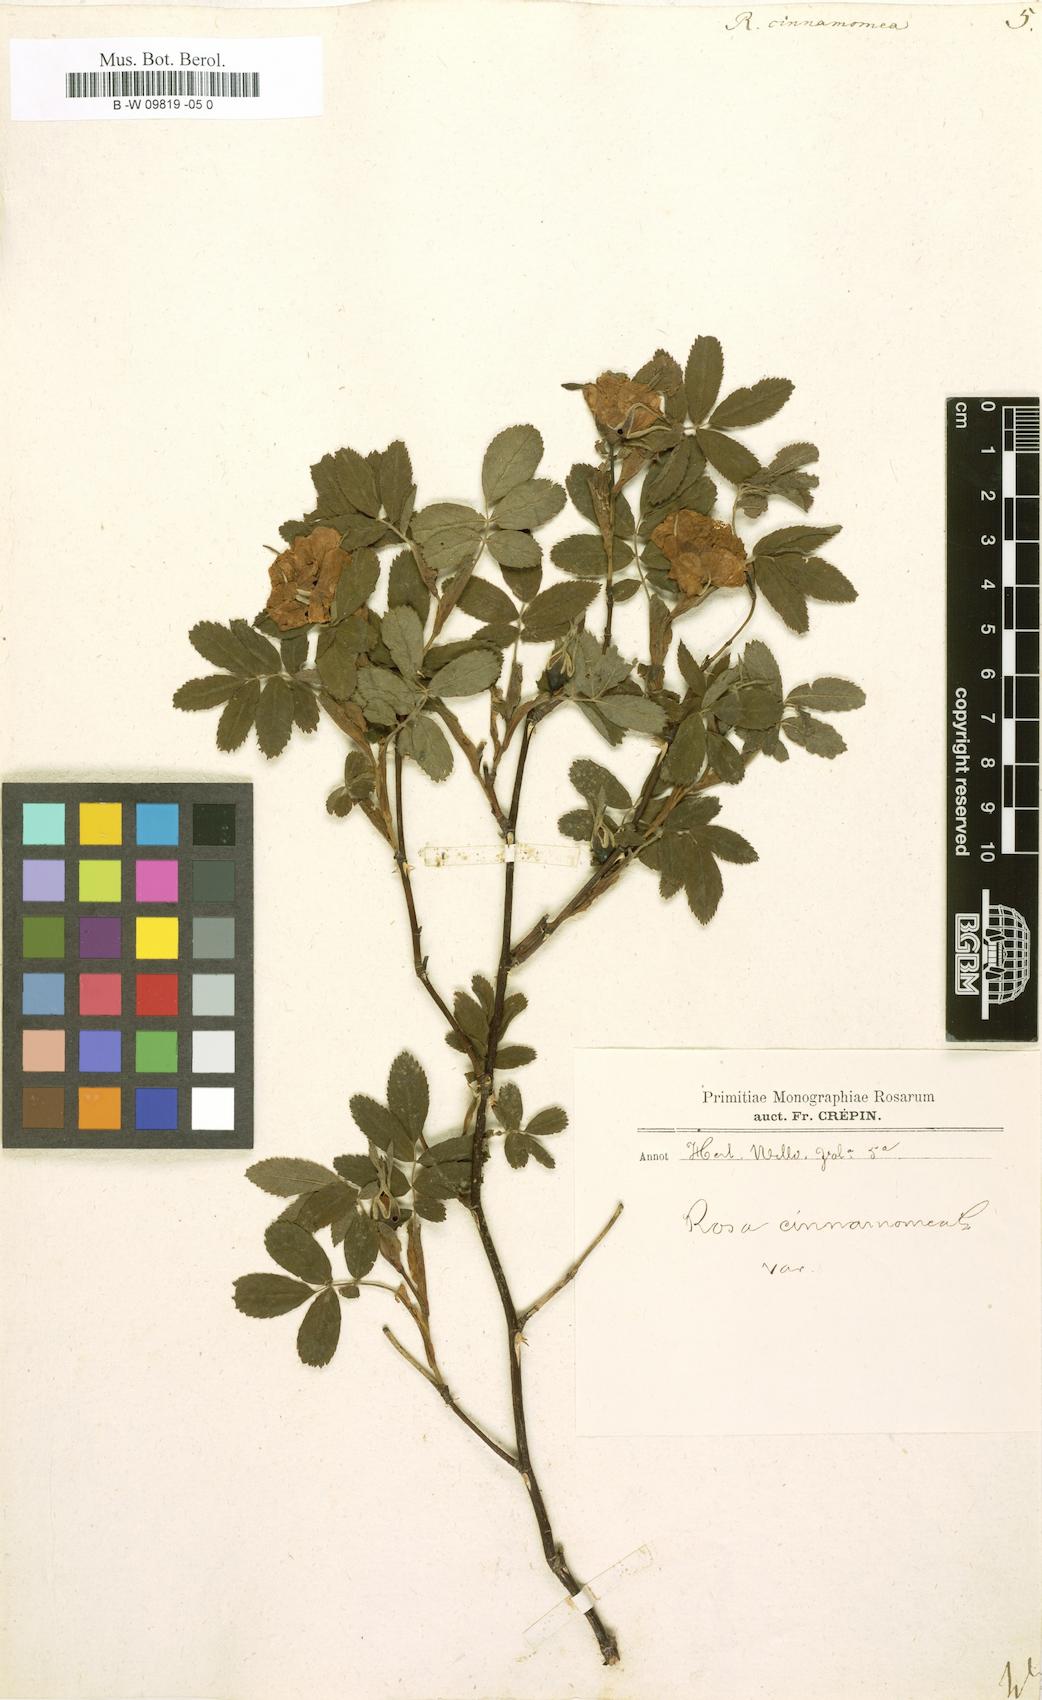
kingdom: Plantae
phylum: Tracheophyta
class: Magnoliopsida
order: Rosales
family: Rosaceae
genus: Rosa
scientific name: Rosa pendulina
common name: Alpine rose
